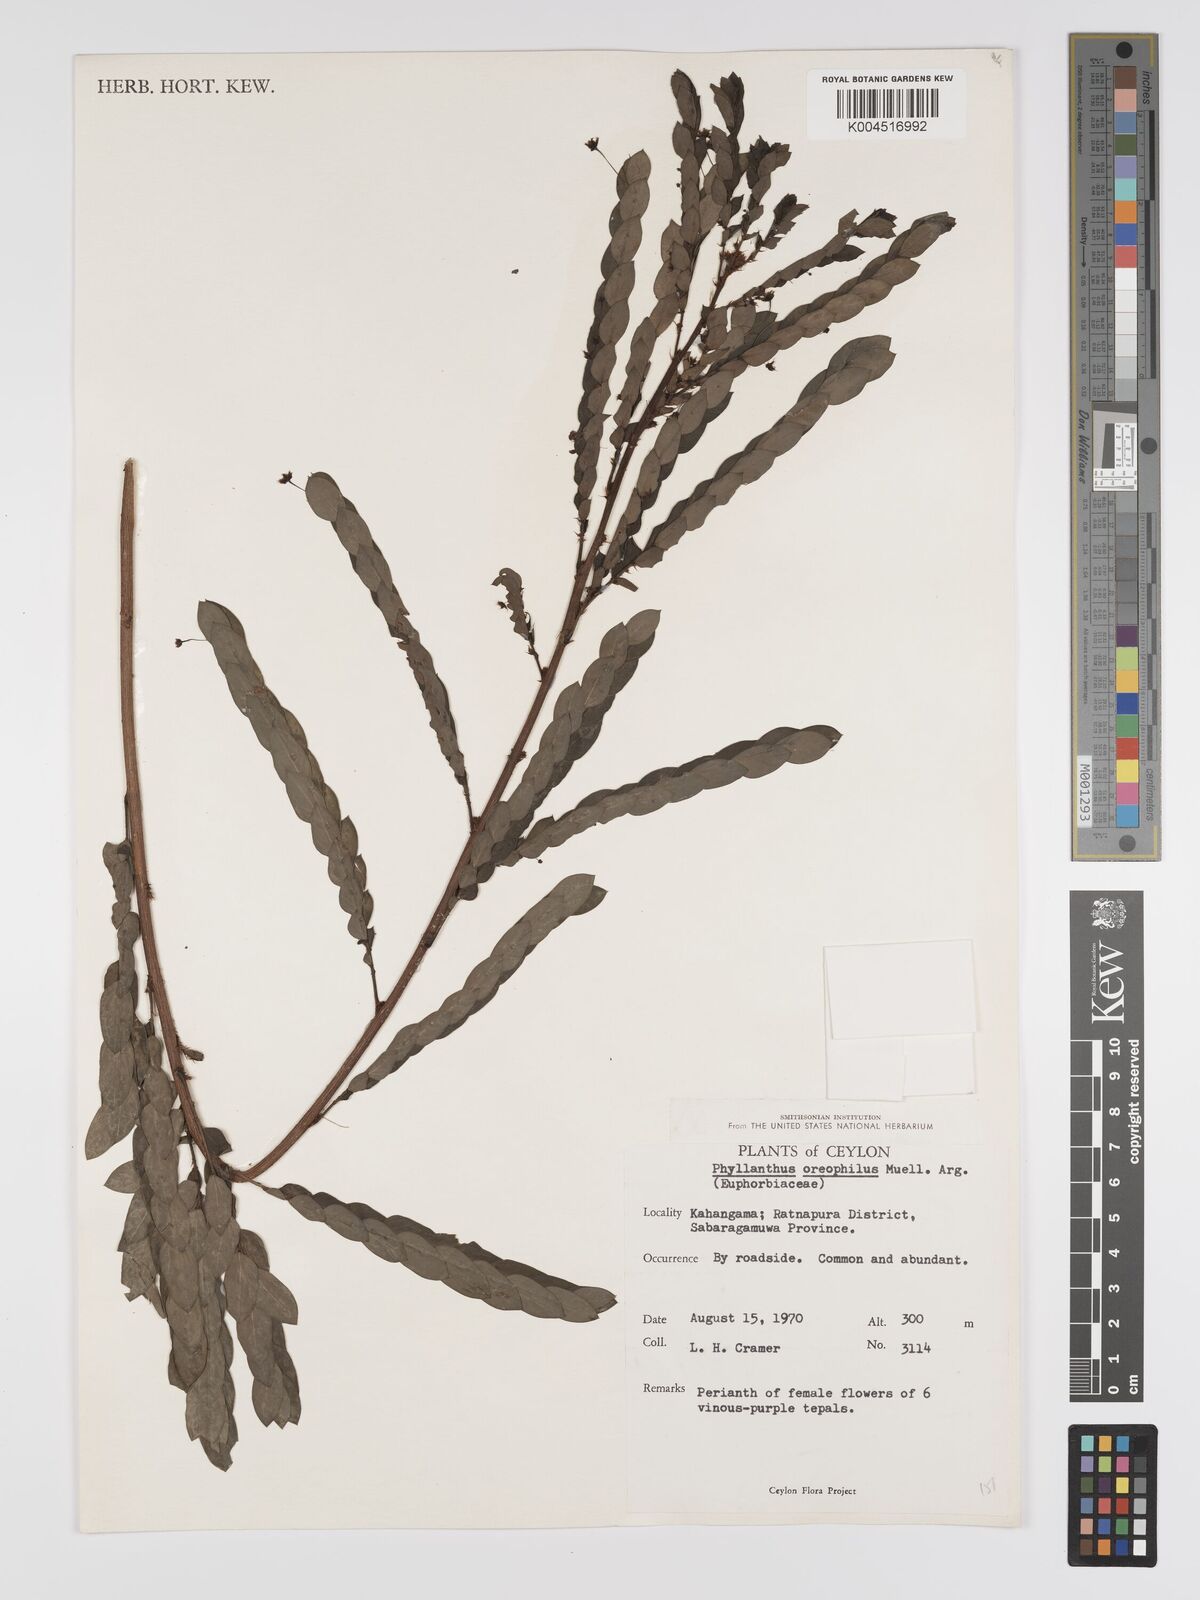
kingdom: Plantae
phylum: Tracheophyta
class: Magnoliopsida
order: Malpighiales
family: Phyllanthaceae
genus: Phyllanthus
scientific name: Phyllanthus oreophilus
